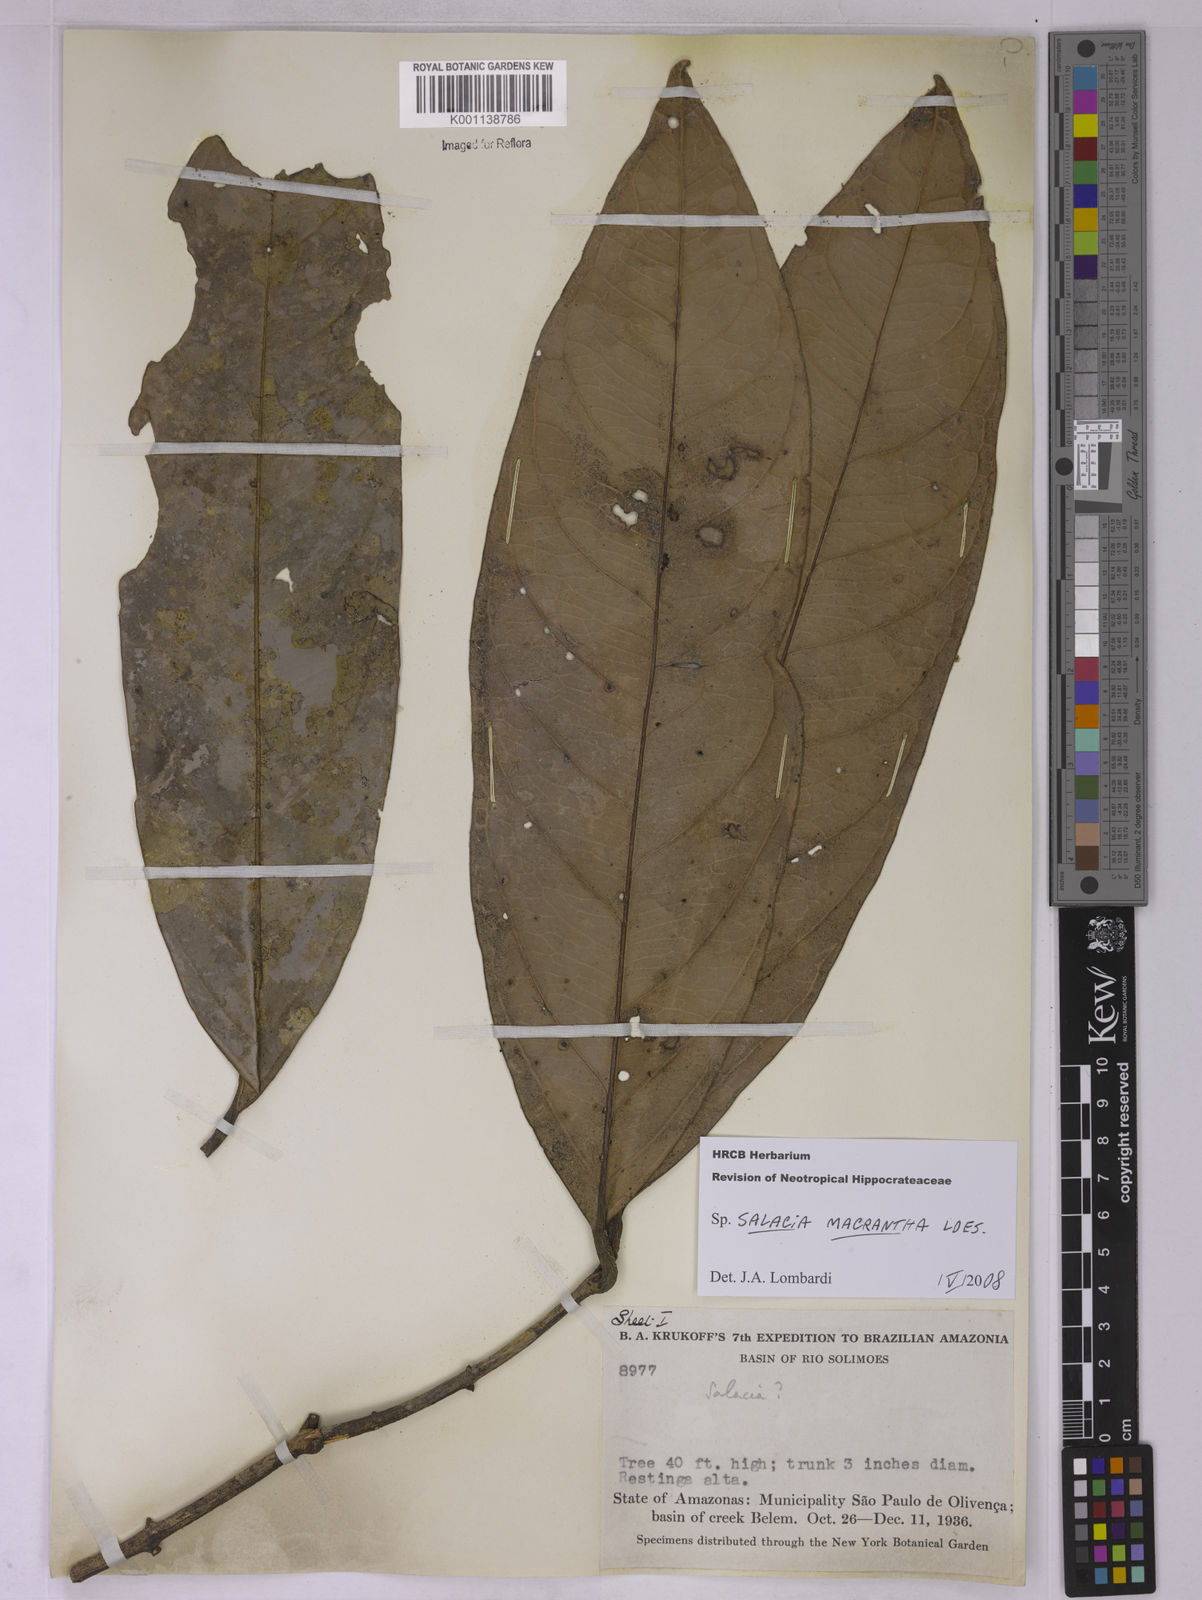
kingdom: Plantae
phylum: Tracheophyta
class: Magnoliopsida
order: Celastrales
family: Celastraceae
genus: Salacia
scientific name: Salacia macrantha
